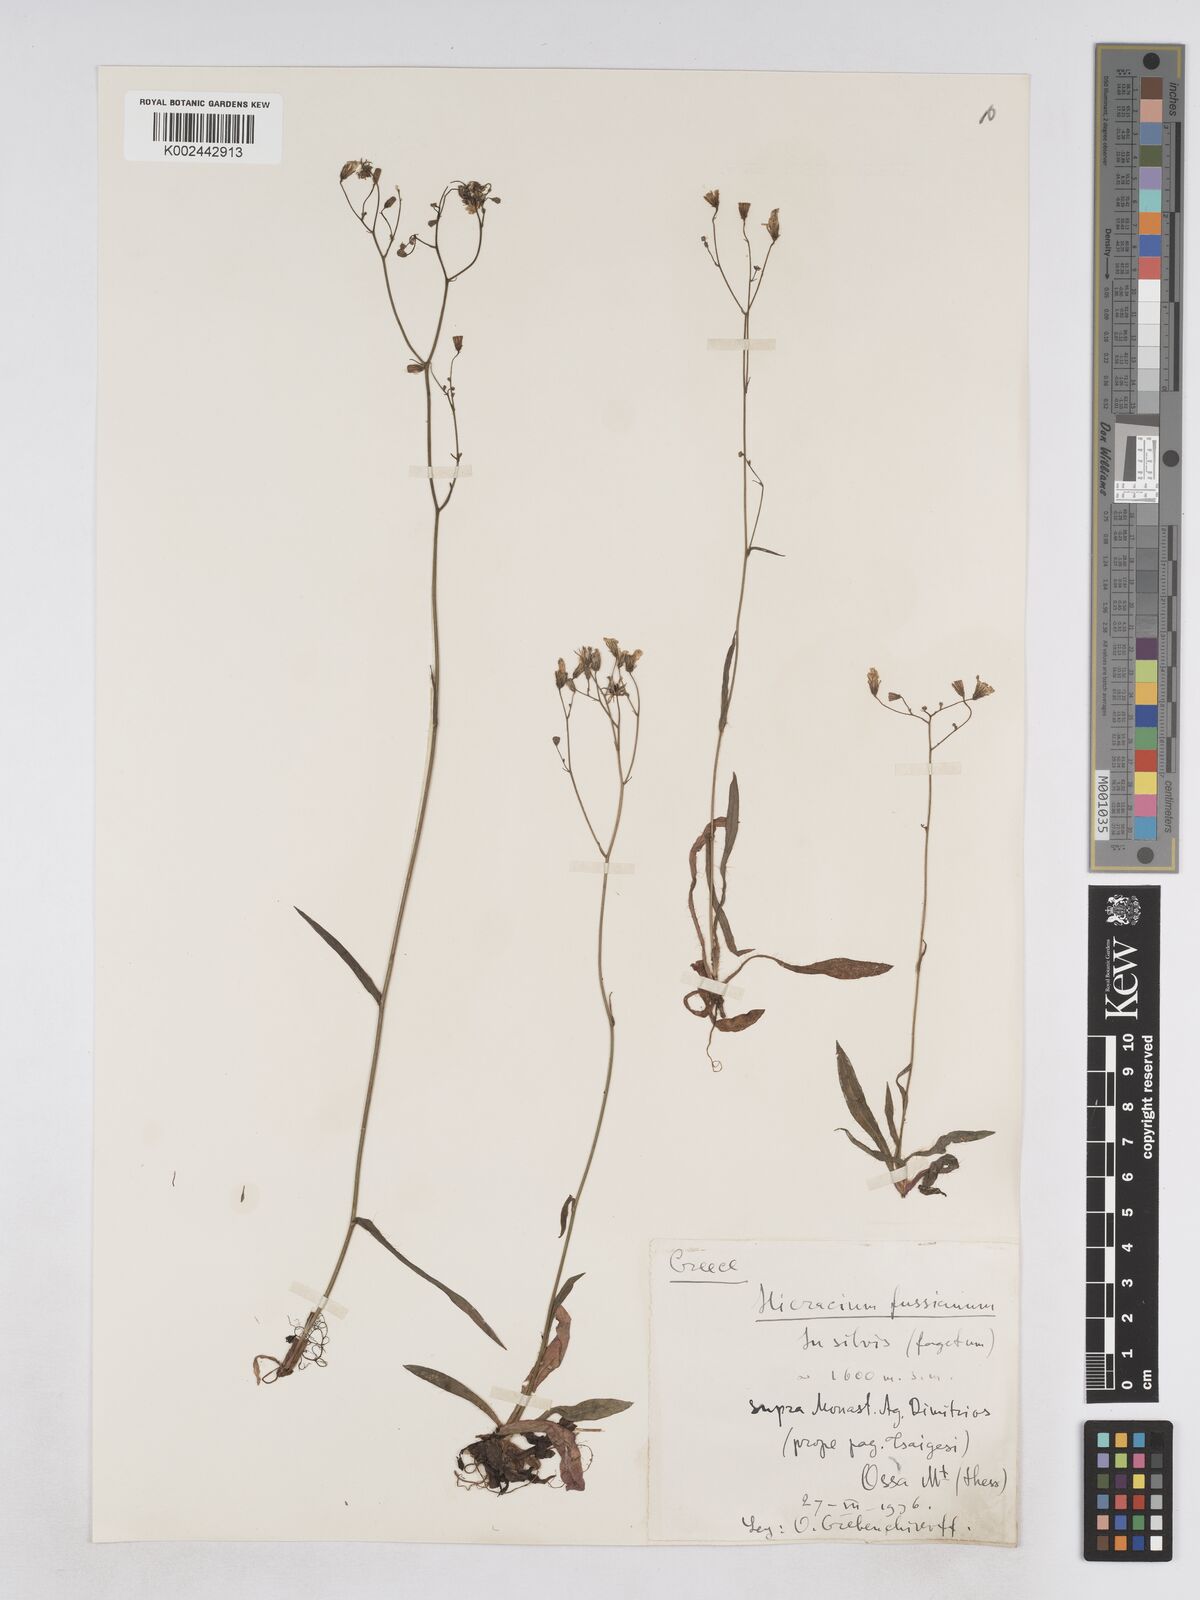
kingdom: Plantae
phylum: Tracheophyta
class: Magnoliopsida
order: Asterales
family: Asteraceae
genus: Pilosella
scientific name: Pilosella pavichii
